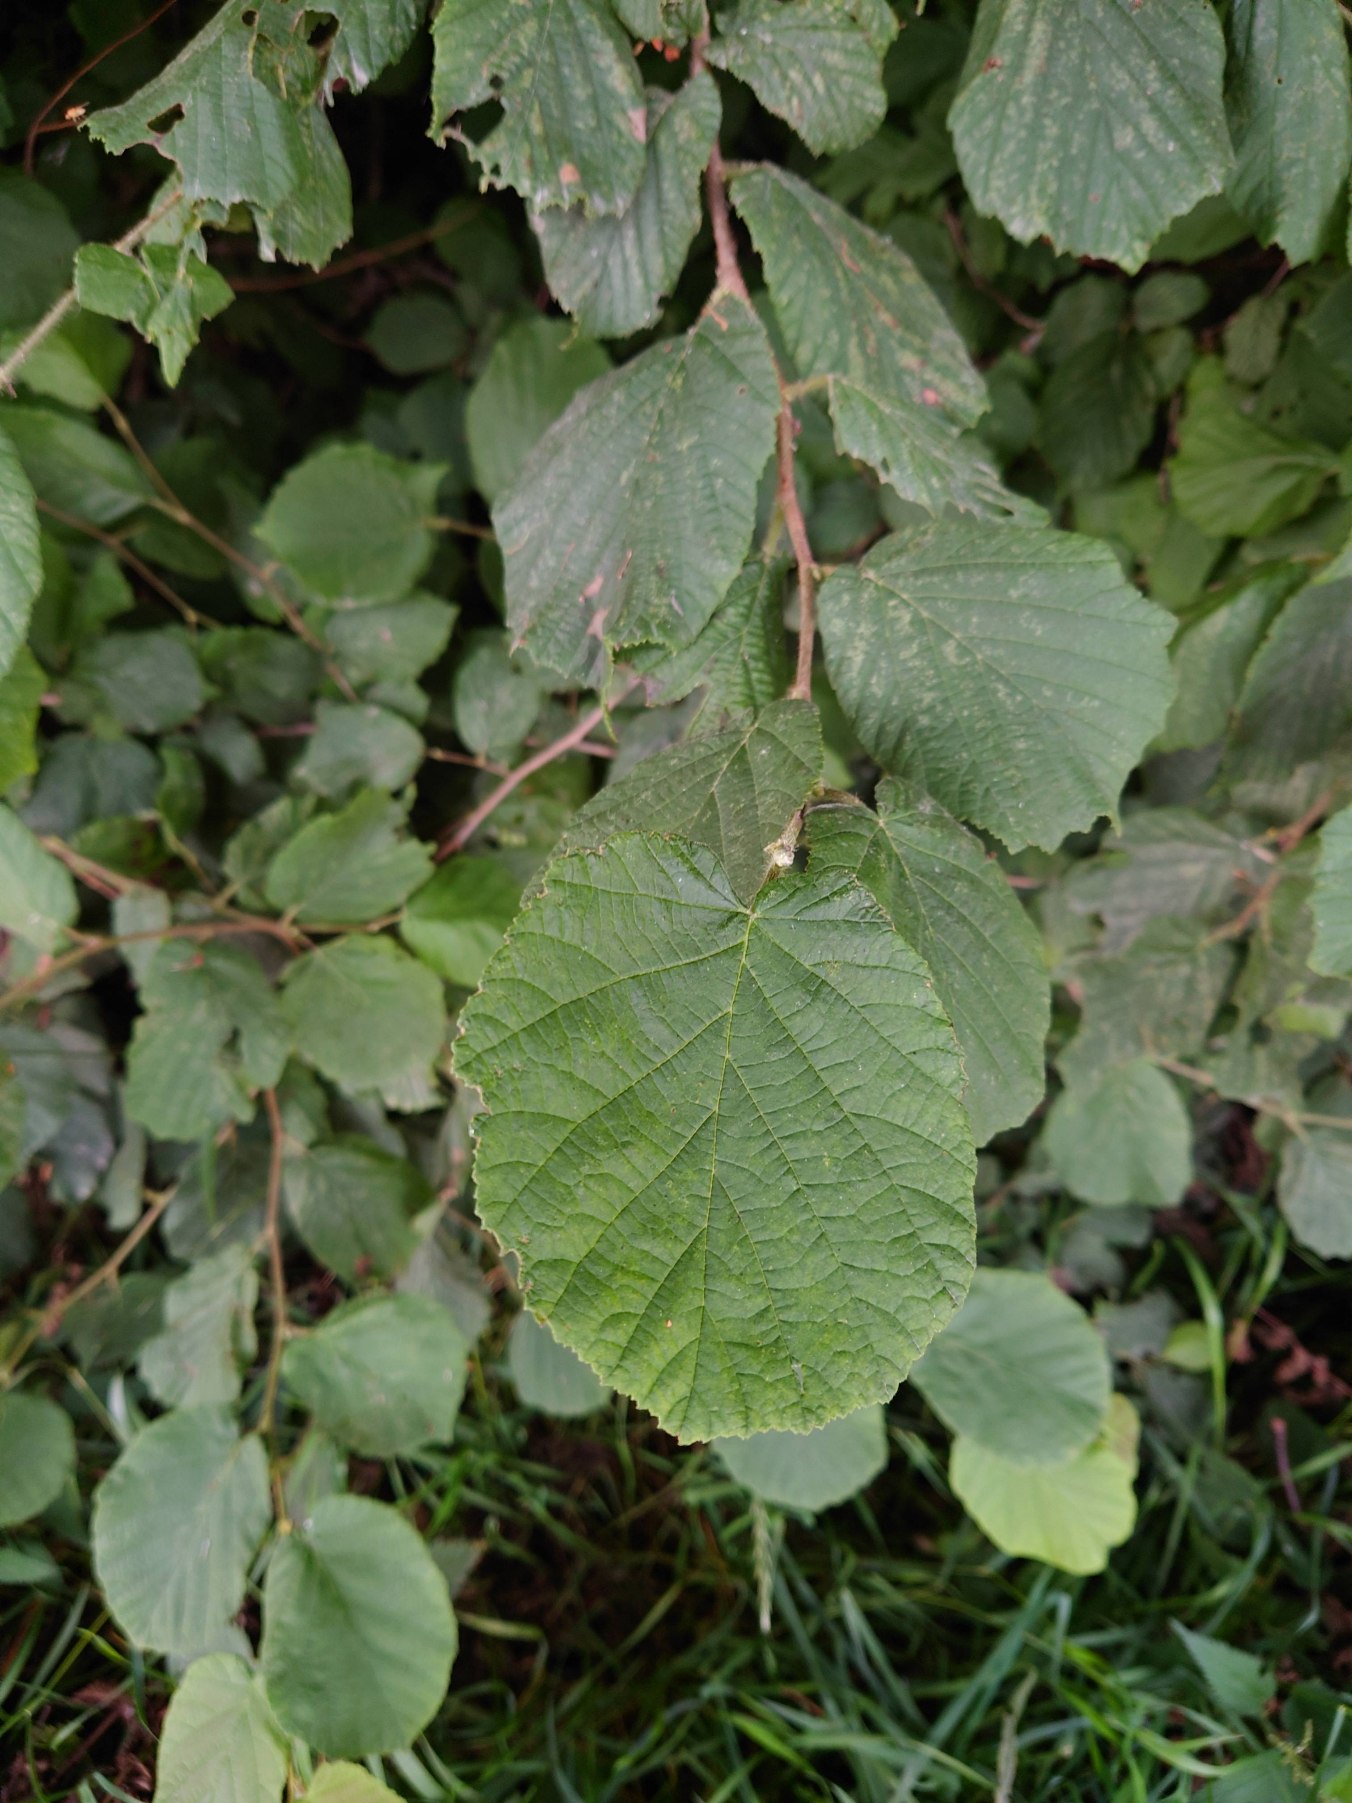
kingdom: Plantae
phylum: Tracheophyta
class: Magnoliopsida
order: Fagales
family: Betulaceae
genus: Corylus
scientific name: Corylus avellana
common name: Hassel
